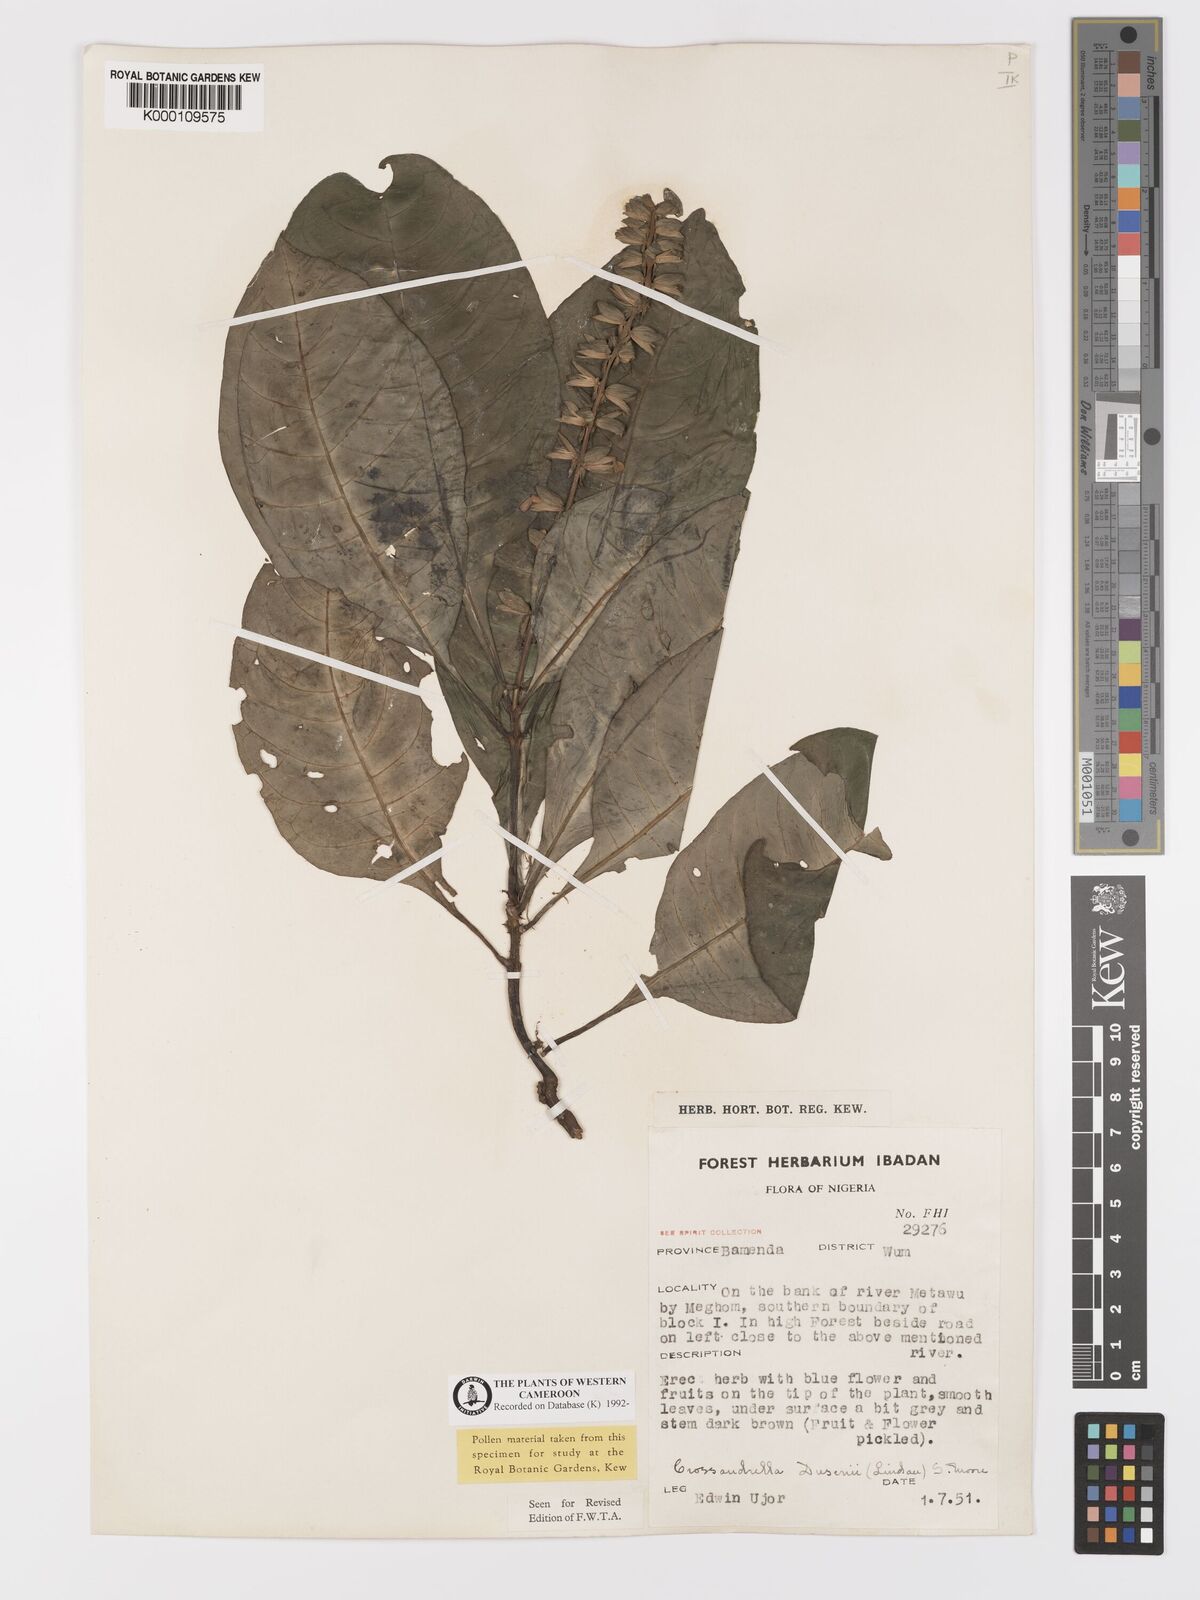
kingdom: Plantae
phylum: Tracheophyta
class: Magnoliopsida
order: Lamiales
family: Acanthaceae
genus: Crossandrella
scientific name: Crossandrella dusenii
